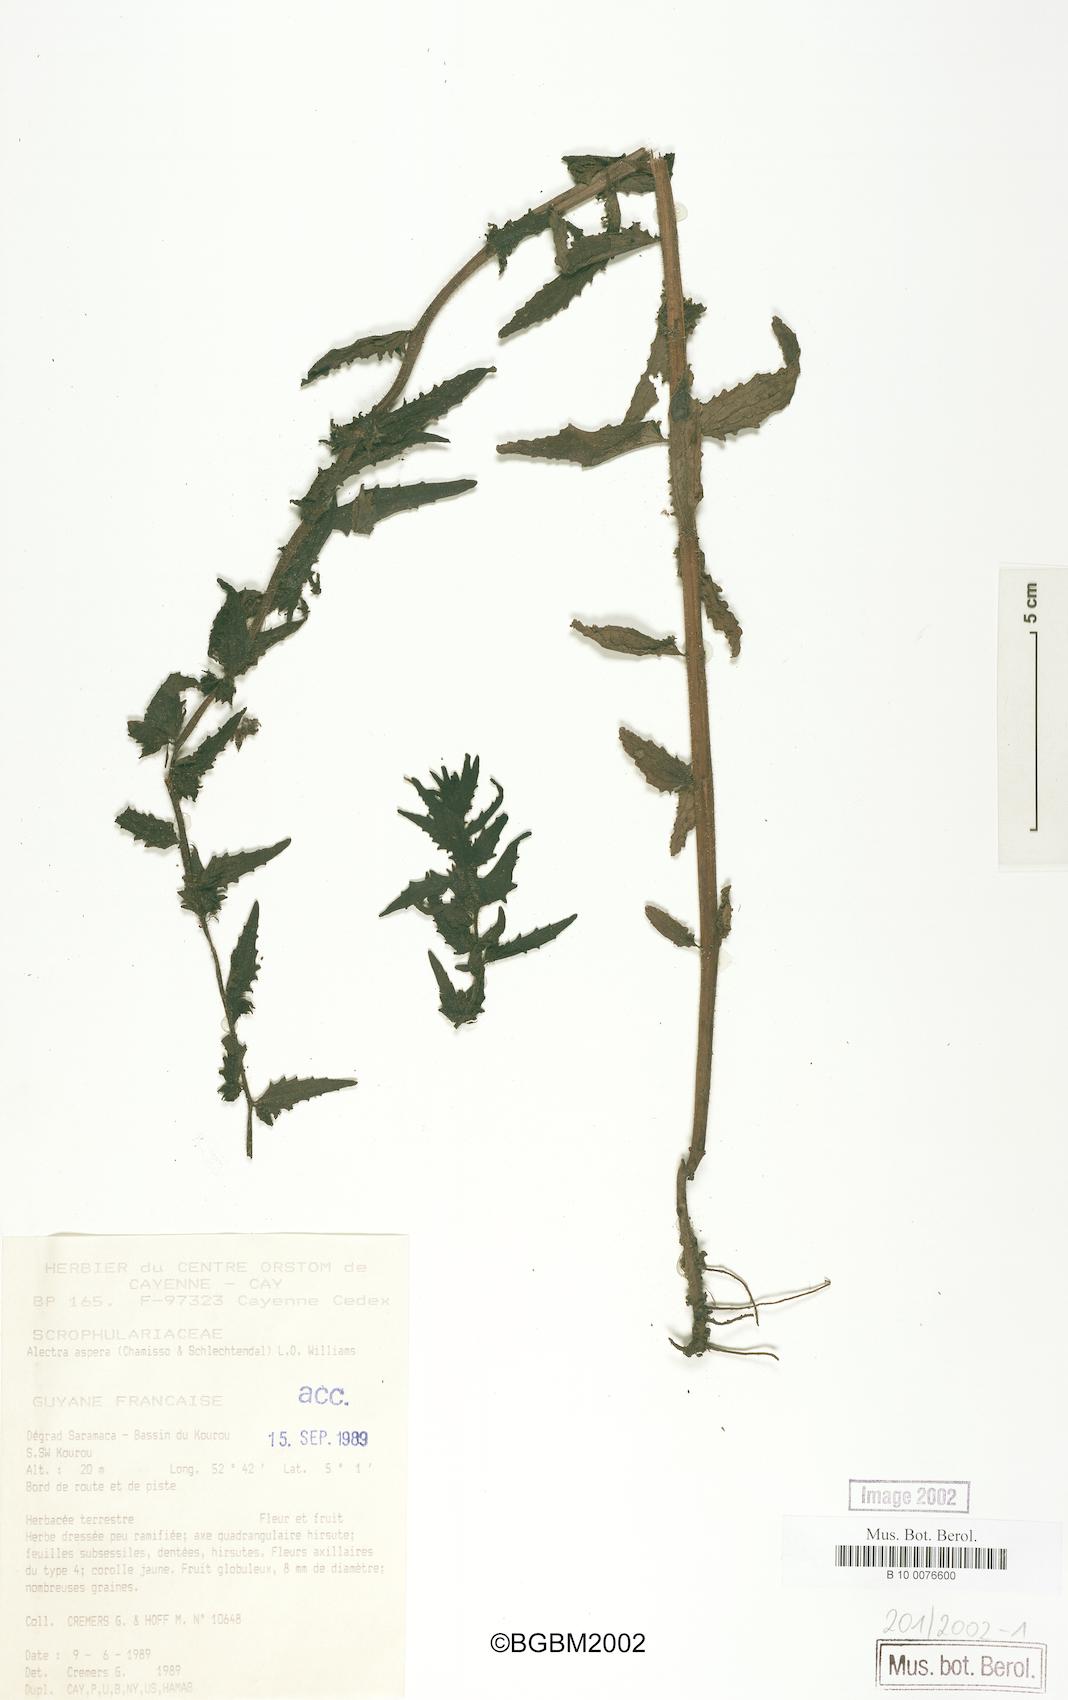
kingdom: Plantae
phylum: Tracheophyta
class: Magnoliopsida
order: Lamiales
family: Orobanchaceae
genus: Melasma
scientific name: Melasma melampyroides
